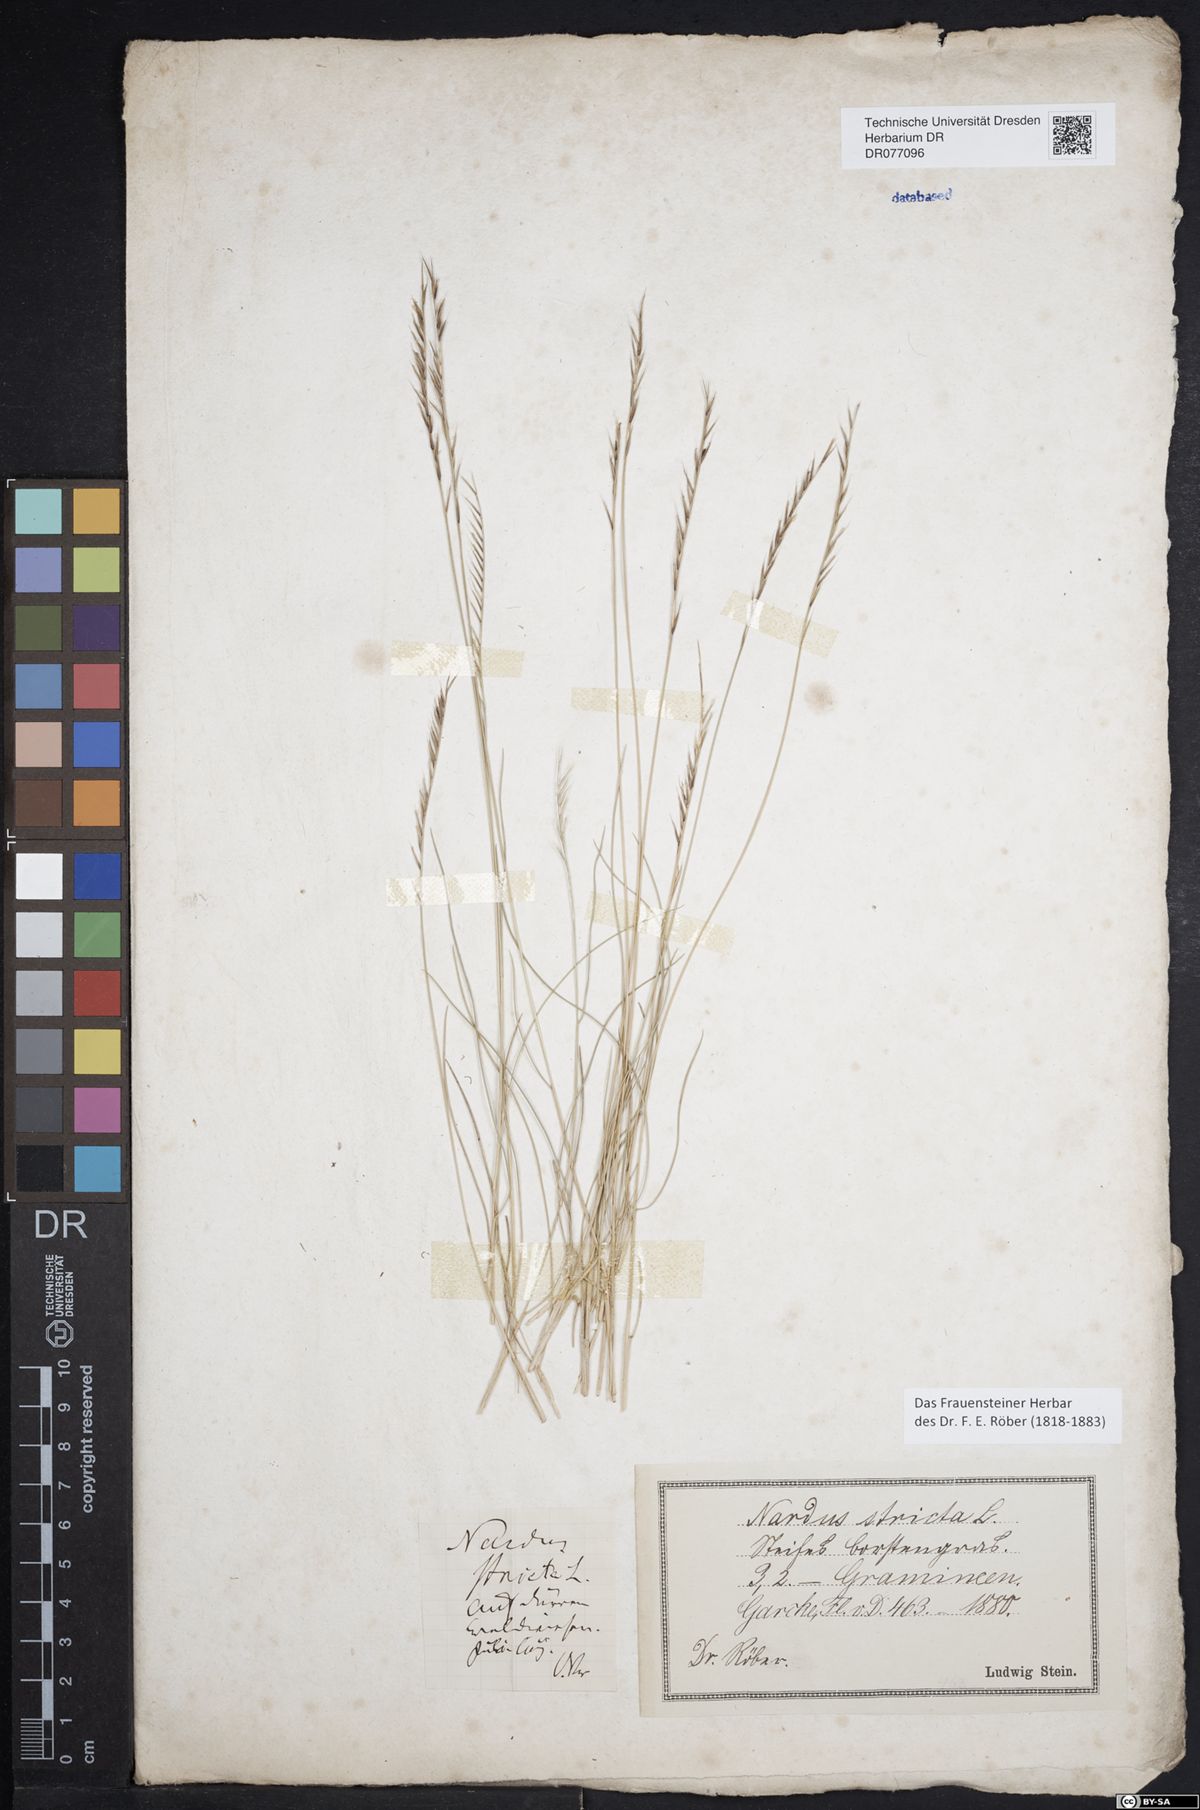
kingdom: Plantae
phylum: Tracheophyta
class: Liliopsida
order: Poales
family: Poaceae
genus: Nardus
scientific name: Nardus stricta
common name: Mat-grass
